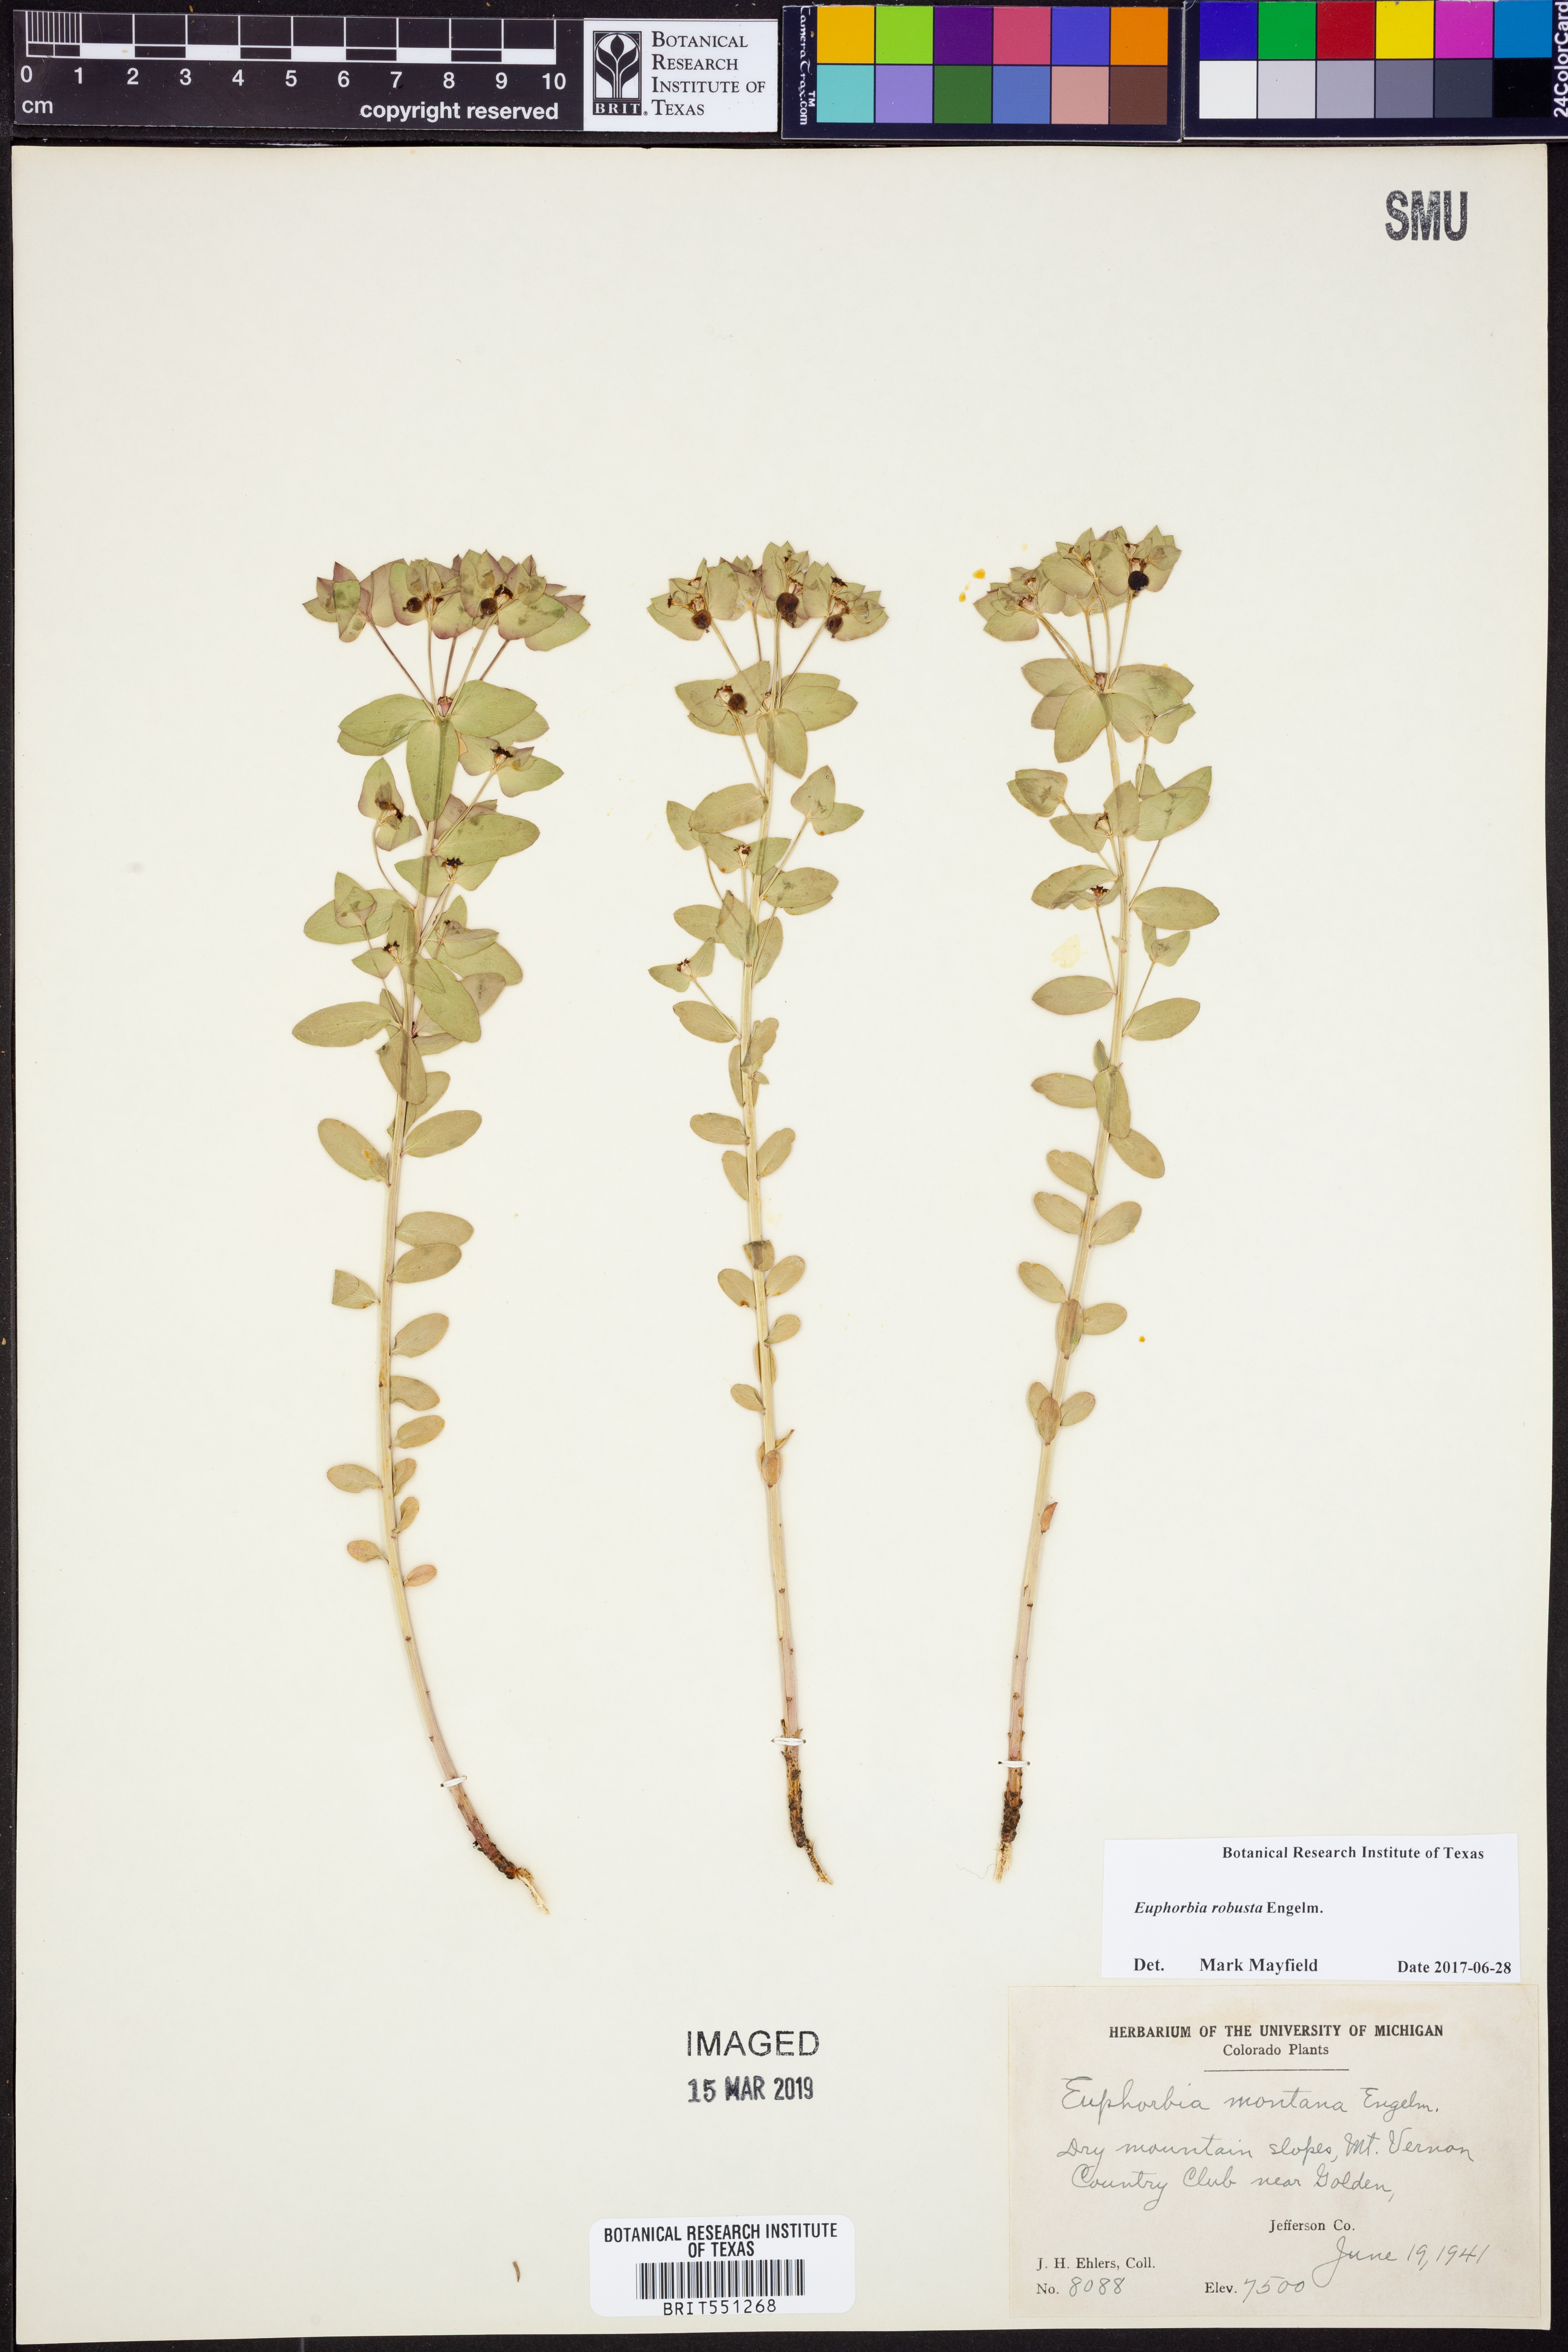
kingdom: Plantae
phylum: Tracheophyta
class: Magnoliopsida
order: Malpighiales
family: Euphorbiaceae
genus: Euphorbia
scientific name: Euphorbia brachycera
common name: Shorthorn spurge
